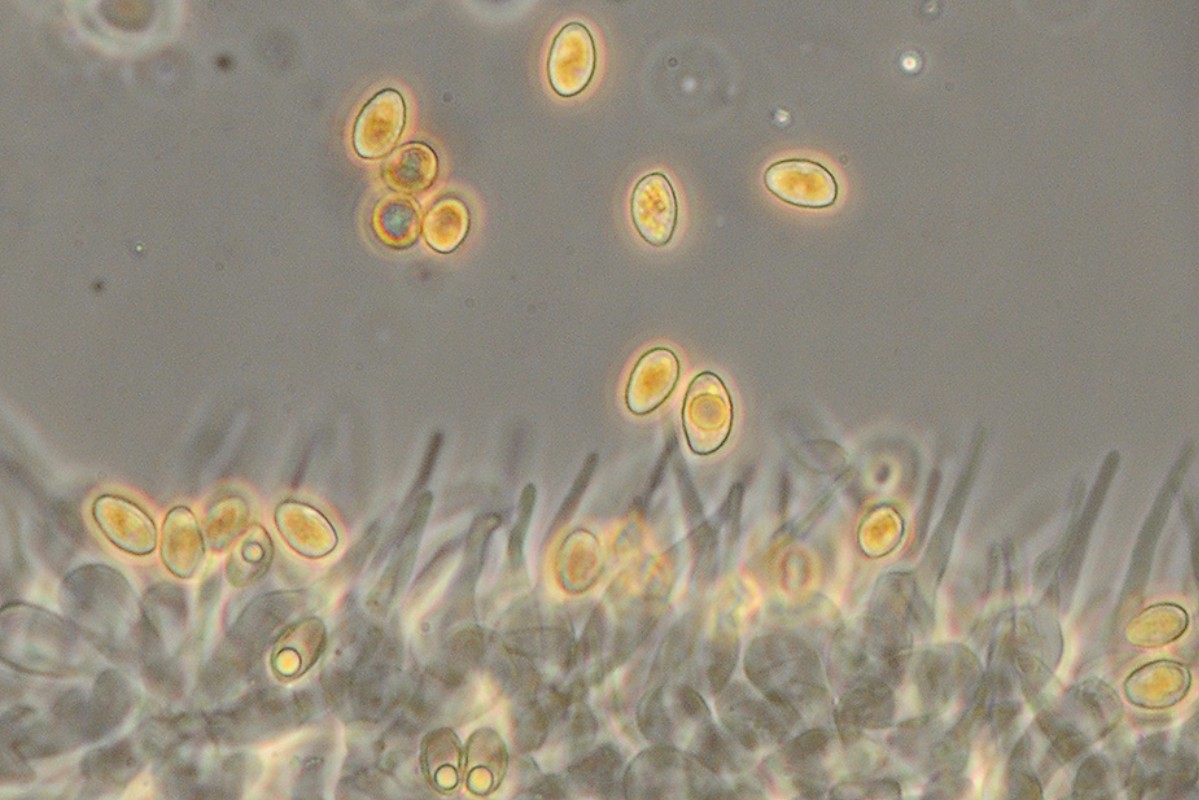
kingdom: Fungi
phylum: Basidiomycota
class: Agaricomycetes
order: Agaricales
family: Hymenogastraceae
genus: Naucoria
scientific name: Naucoria amarescens
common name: bitter knaphat
